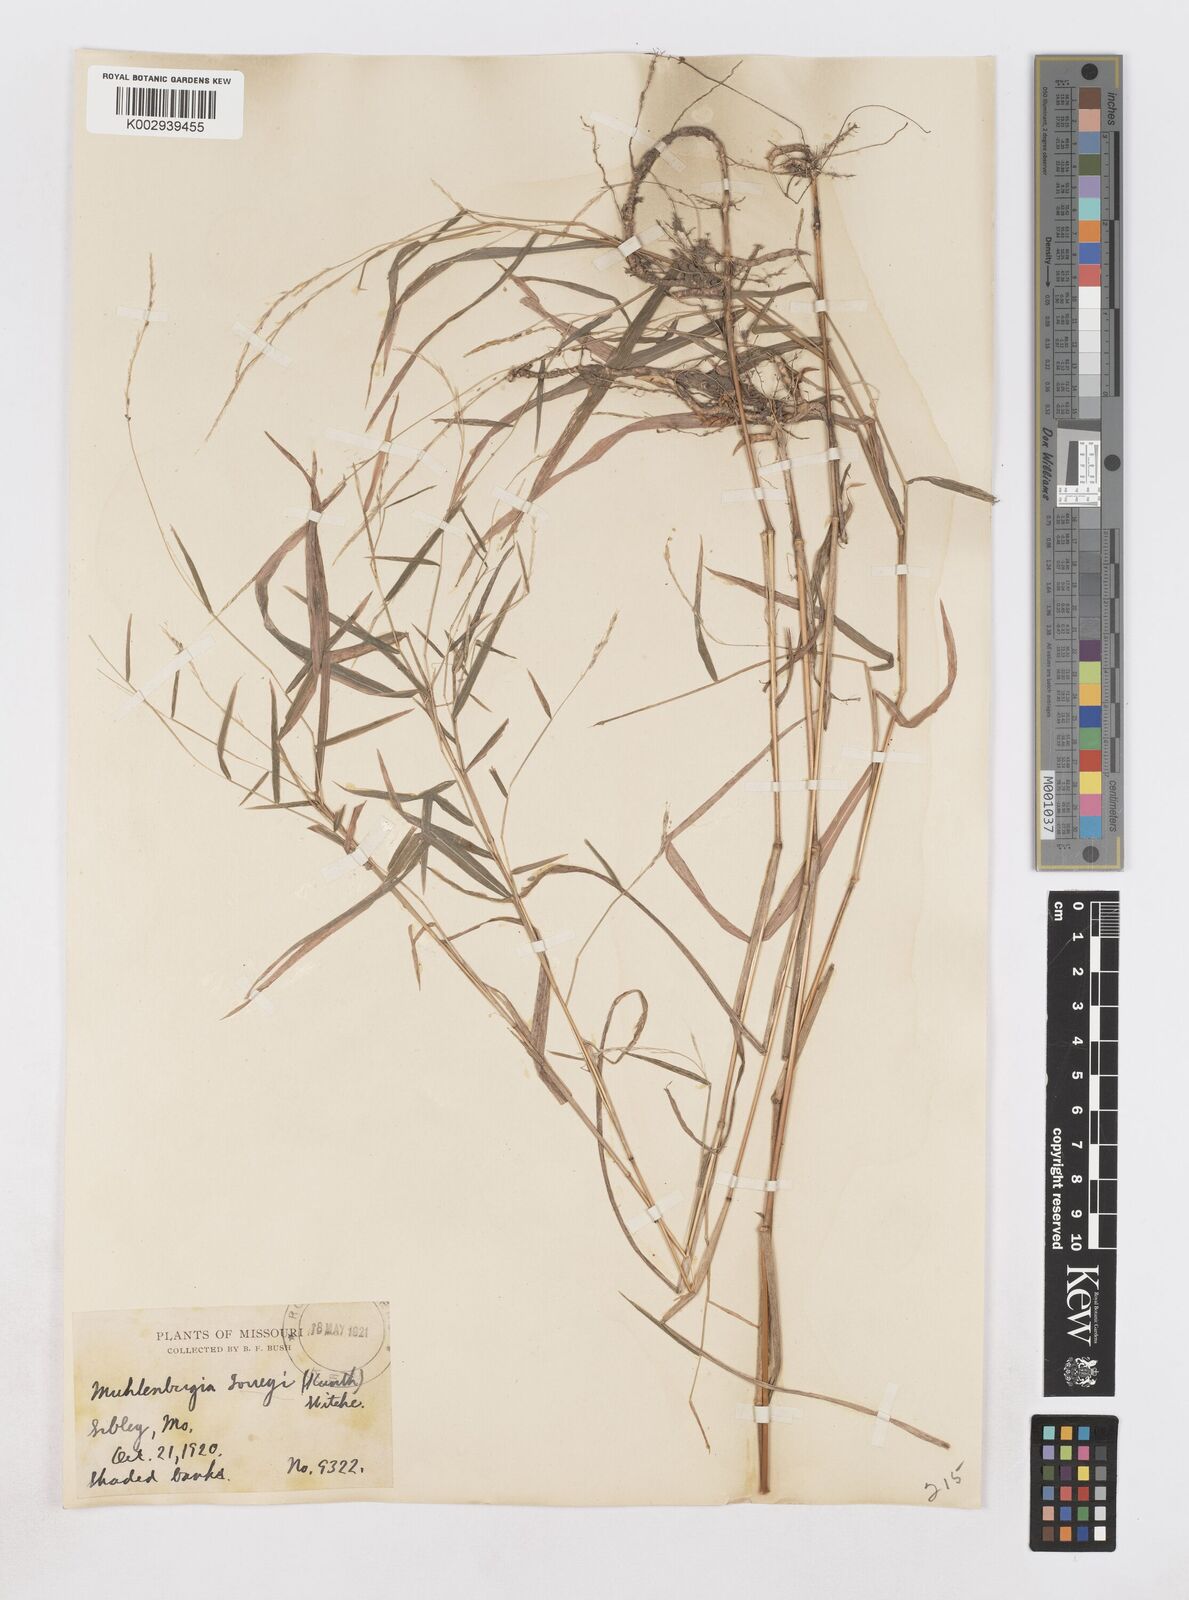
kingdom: Plantae
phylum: Tracheophyta
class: Liliopsida
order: Poales
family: Poaceae
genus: Muhlenbergia
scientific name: Muhlenbergia tenuiflora
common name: Slender muhly
